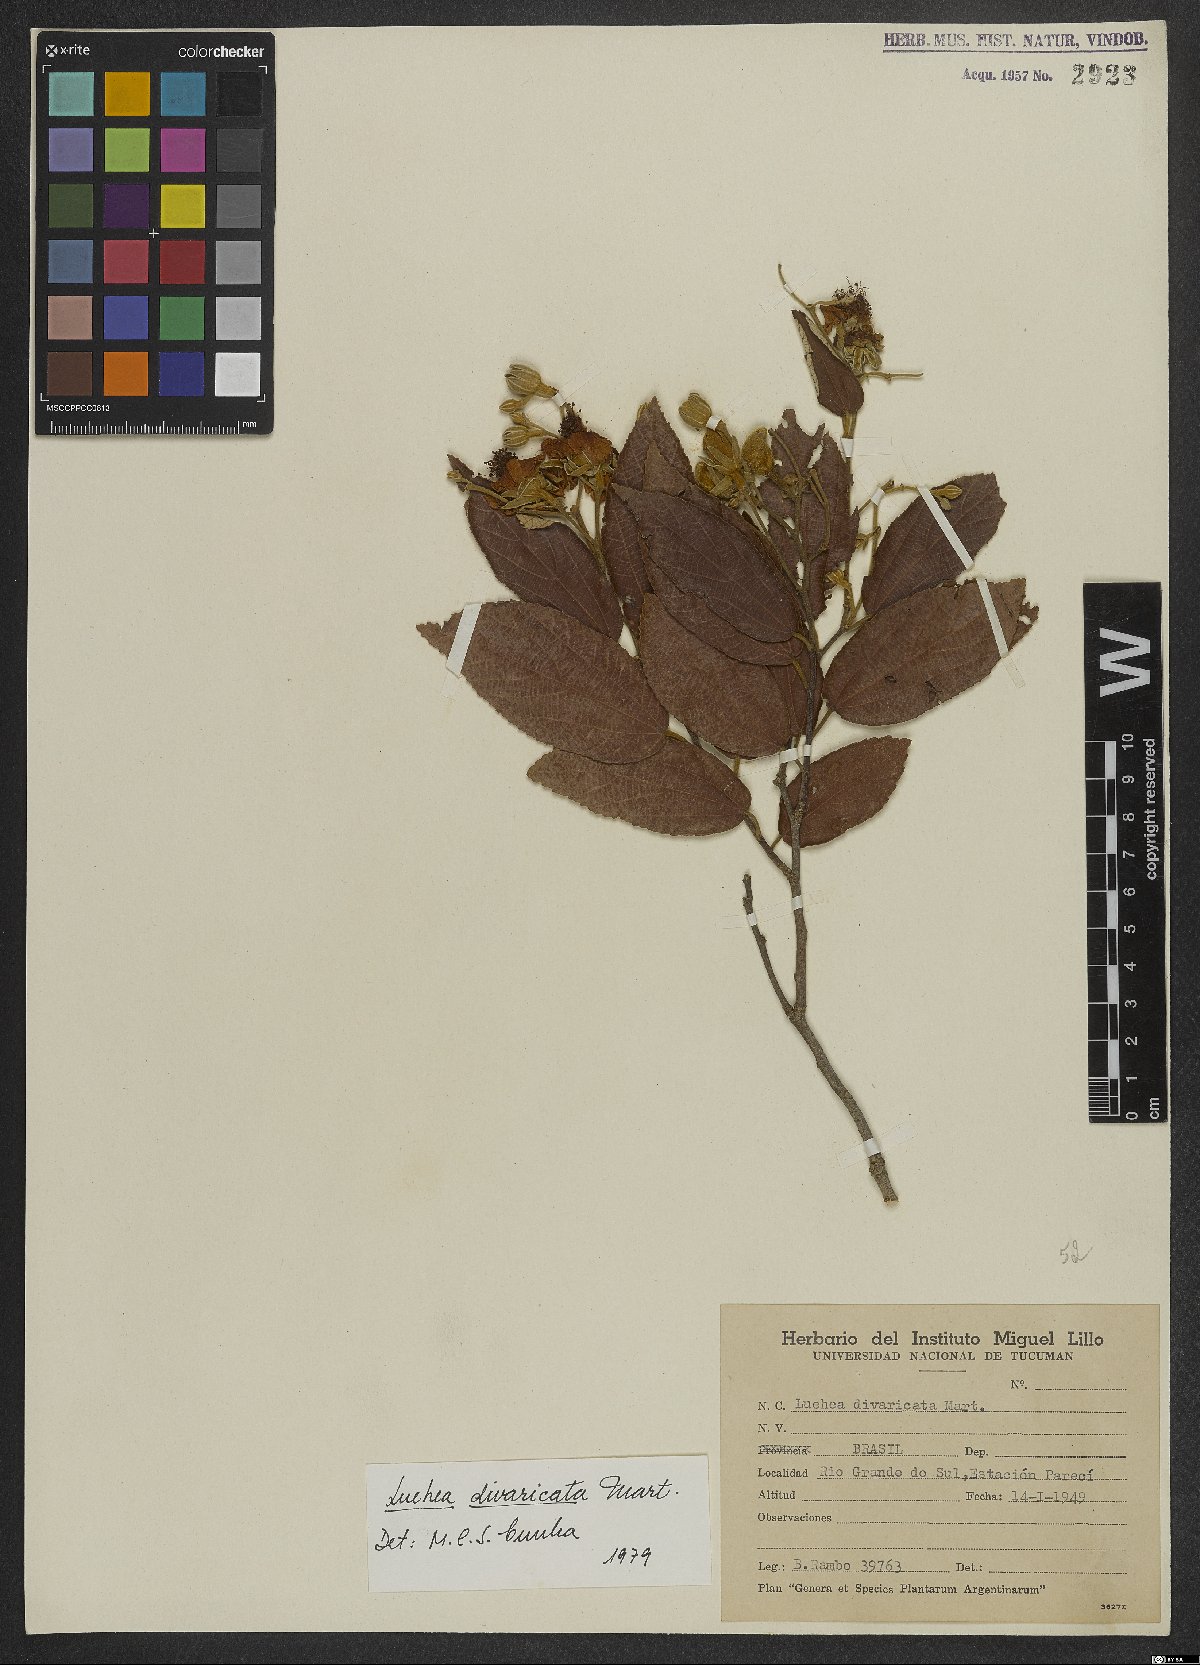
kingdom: Plantae
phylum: Tracheophyta
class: Magnoliopsida
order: Malvales
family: Malvaceae
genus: Luehea
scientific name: Luehea divaricata
